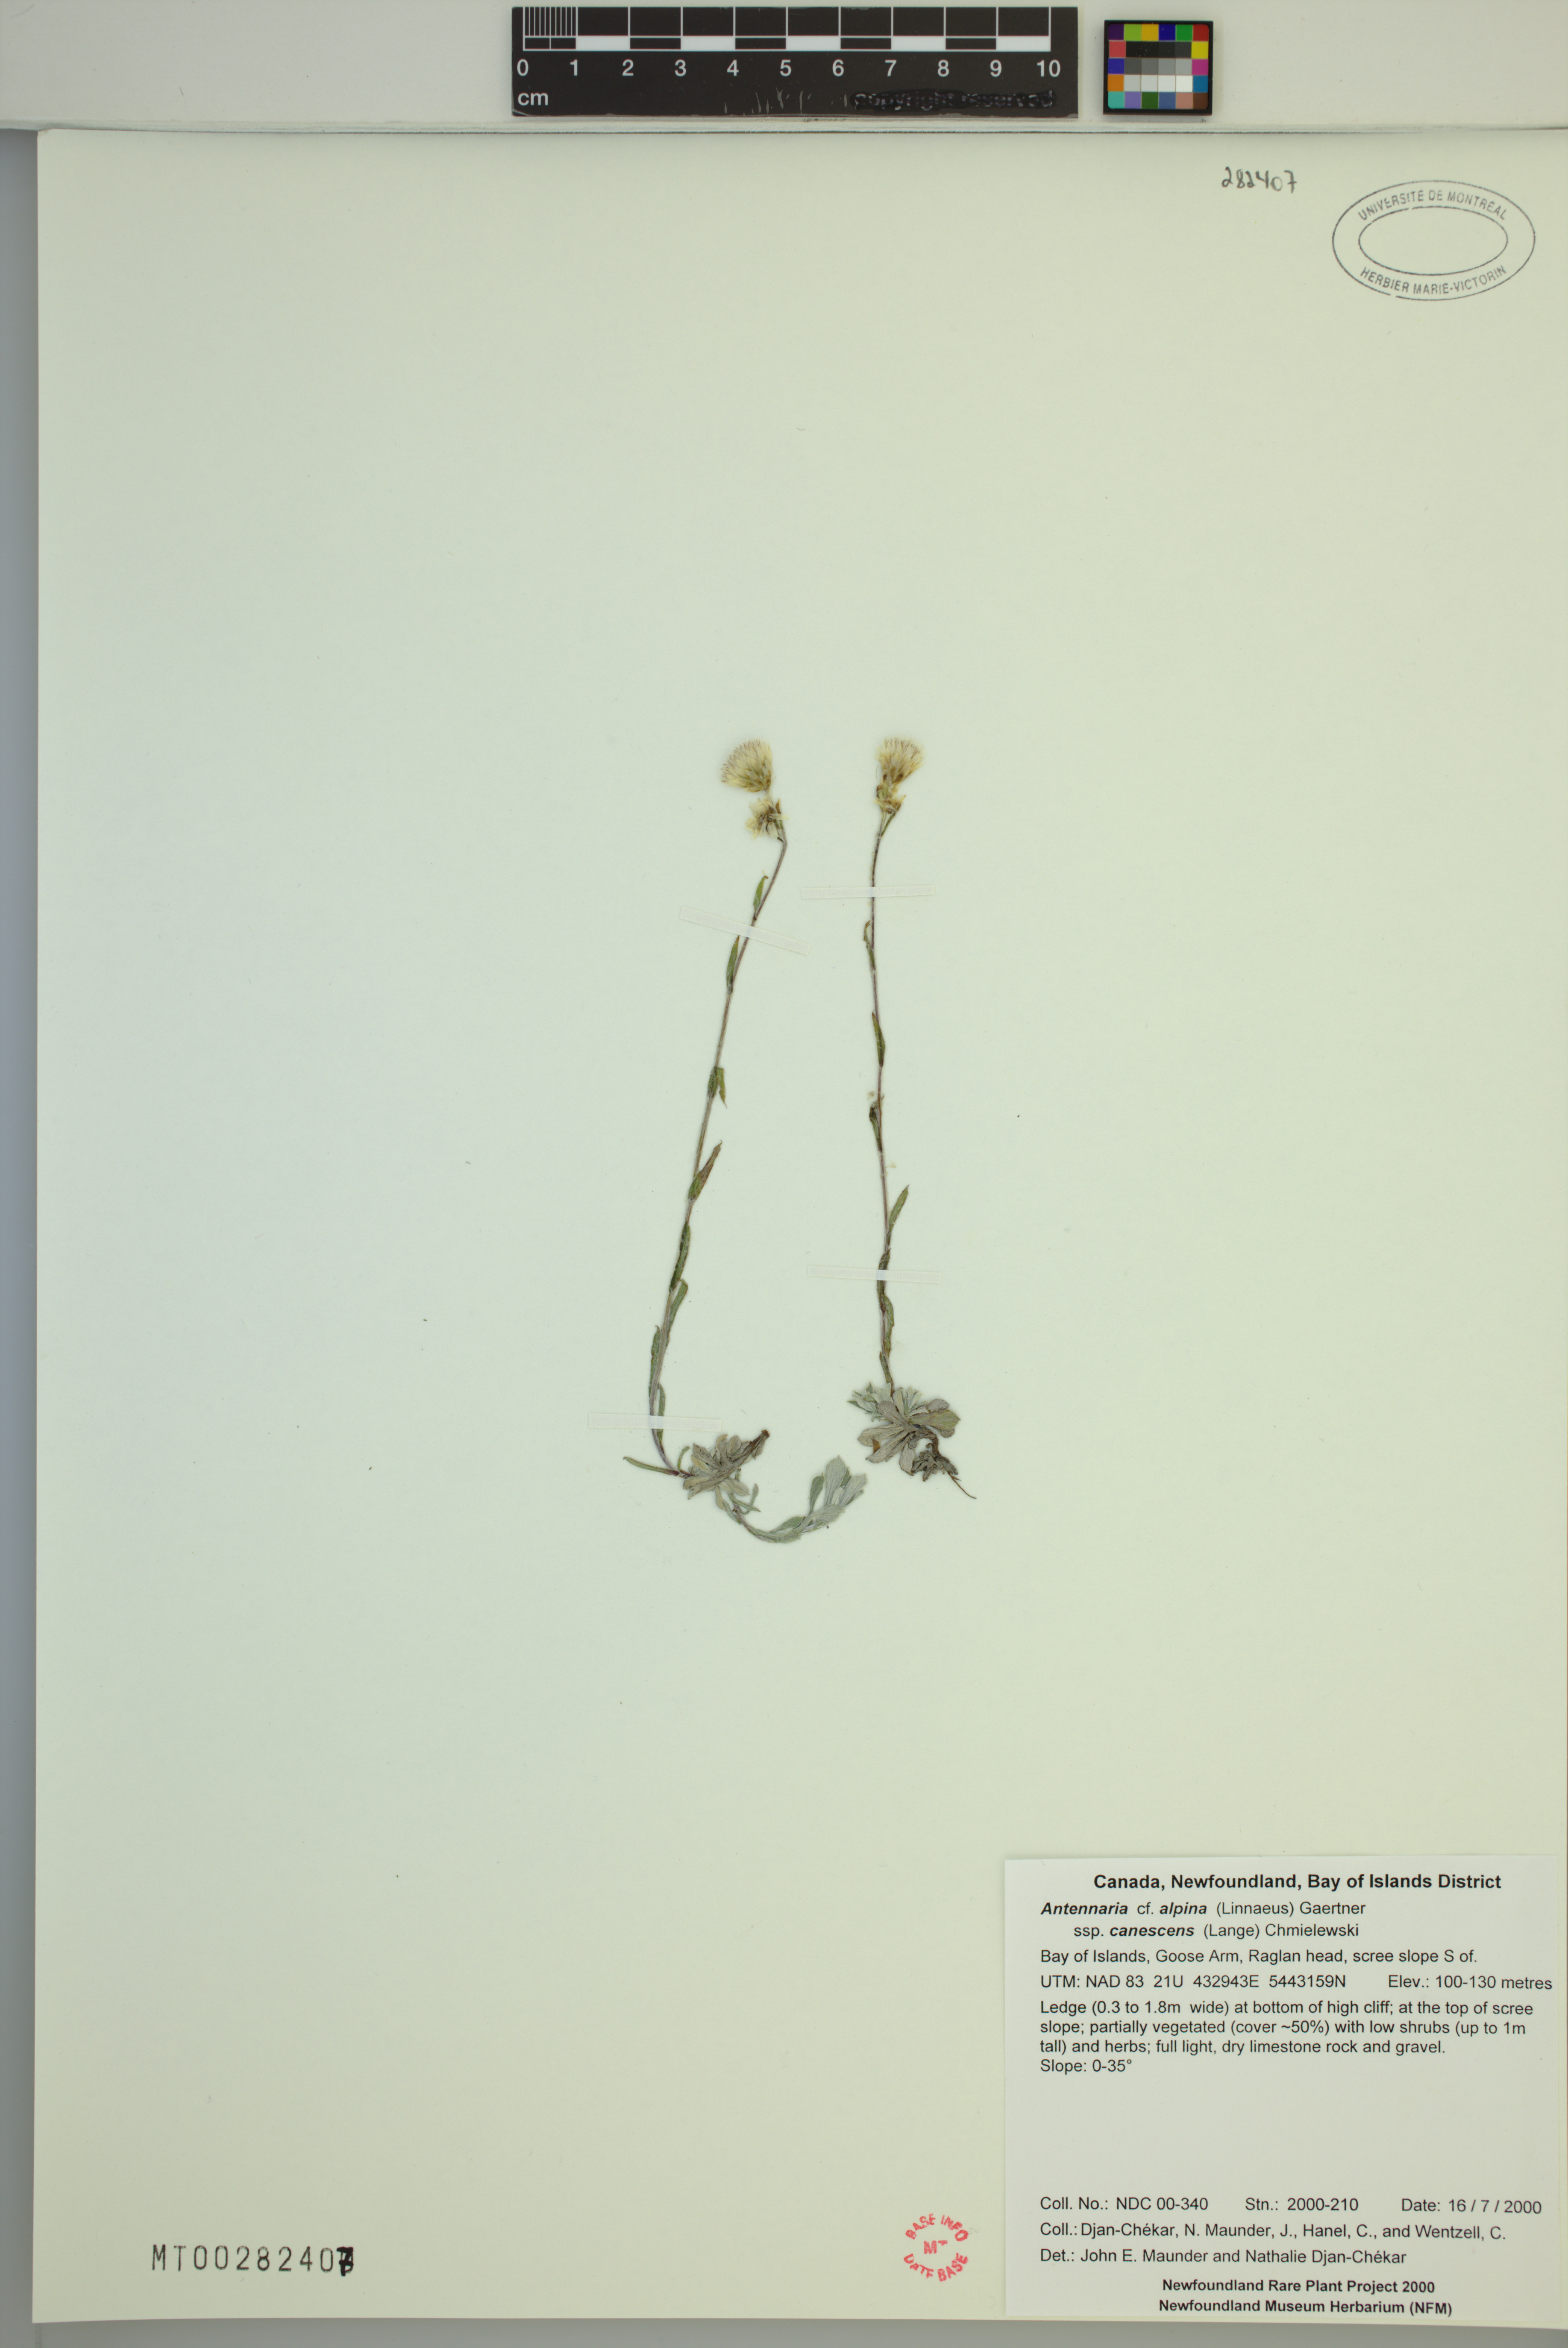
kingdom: Plantae
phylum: Tracheophyta
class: Magnoliopsida
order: Asterales
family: Asteraceae
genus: Antennaria
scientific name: Antennaria alpina
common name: Alpine pussytoes
